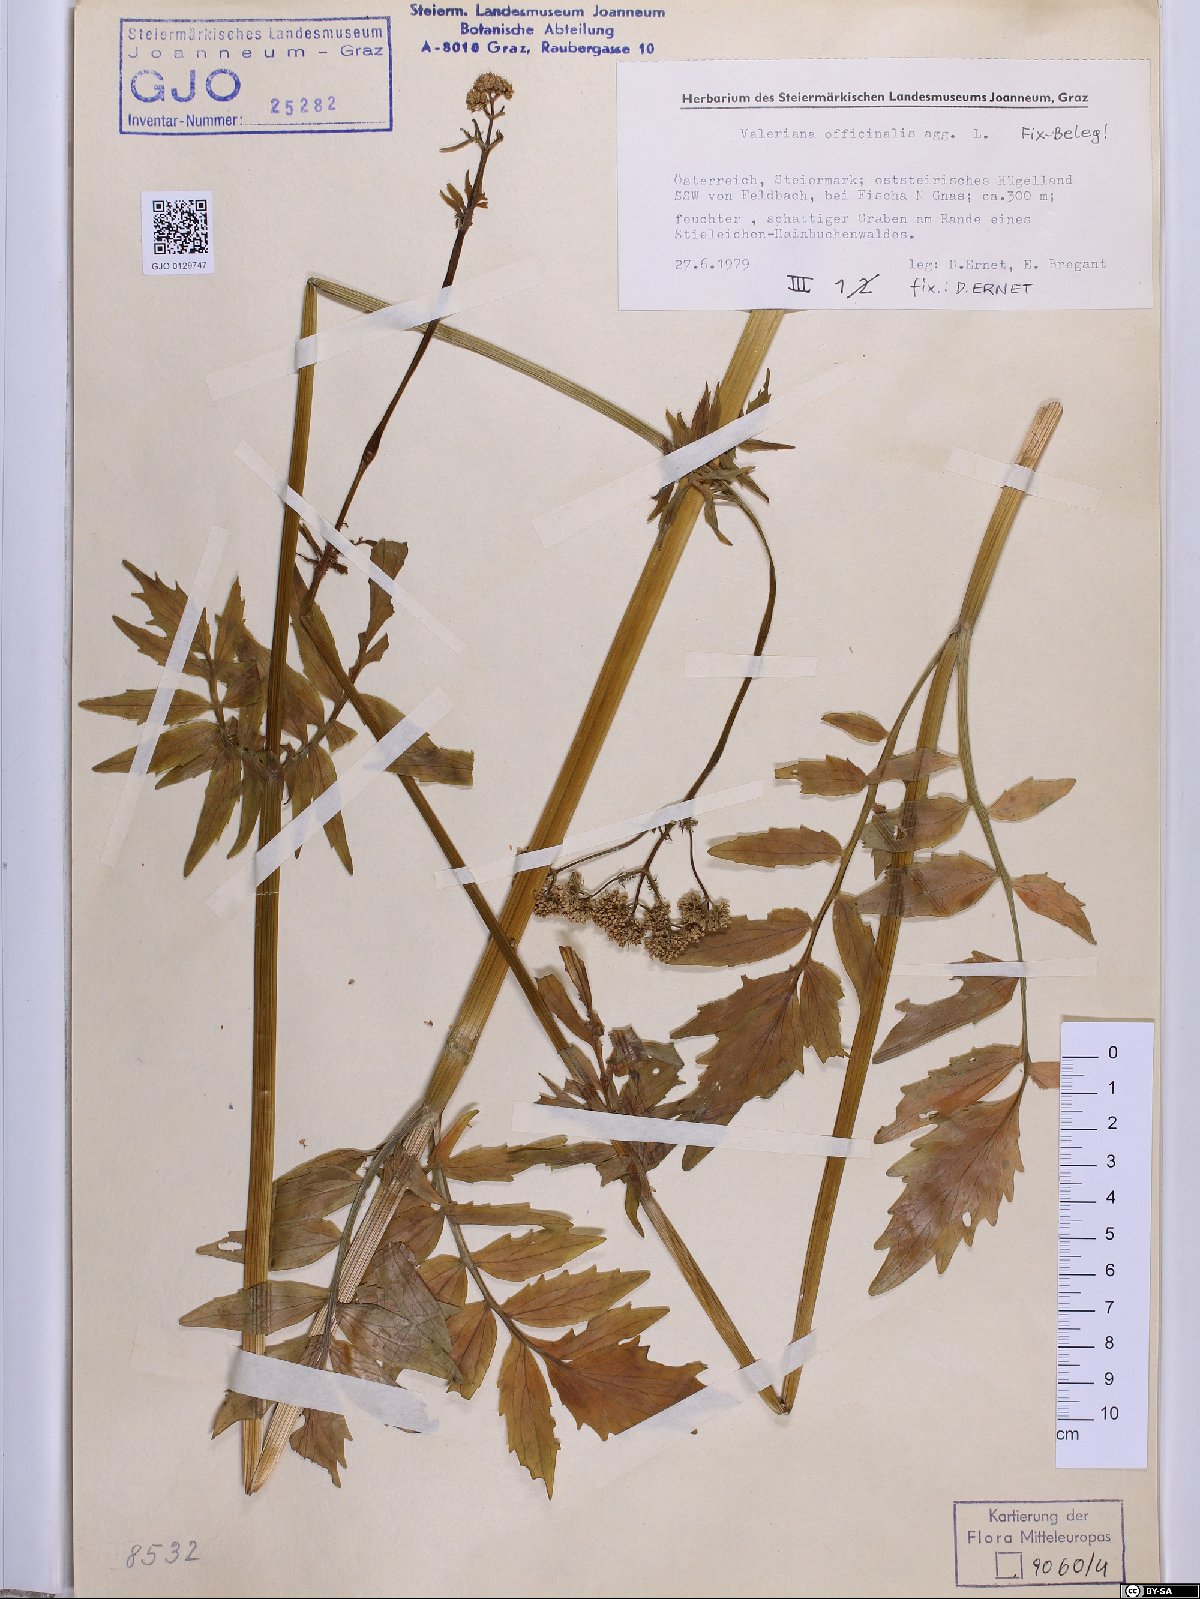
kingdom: Plantae
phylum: Tracheophyta
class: Magnoliopsida
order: Dipsacales
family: Caprifoliaceae
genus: Valeriana
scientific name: Valeriana officinalis
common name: Common valerian
